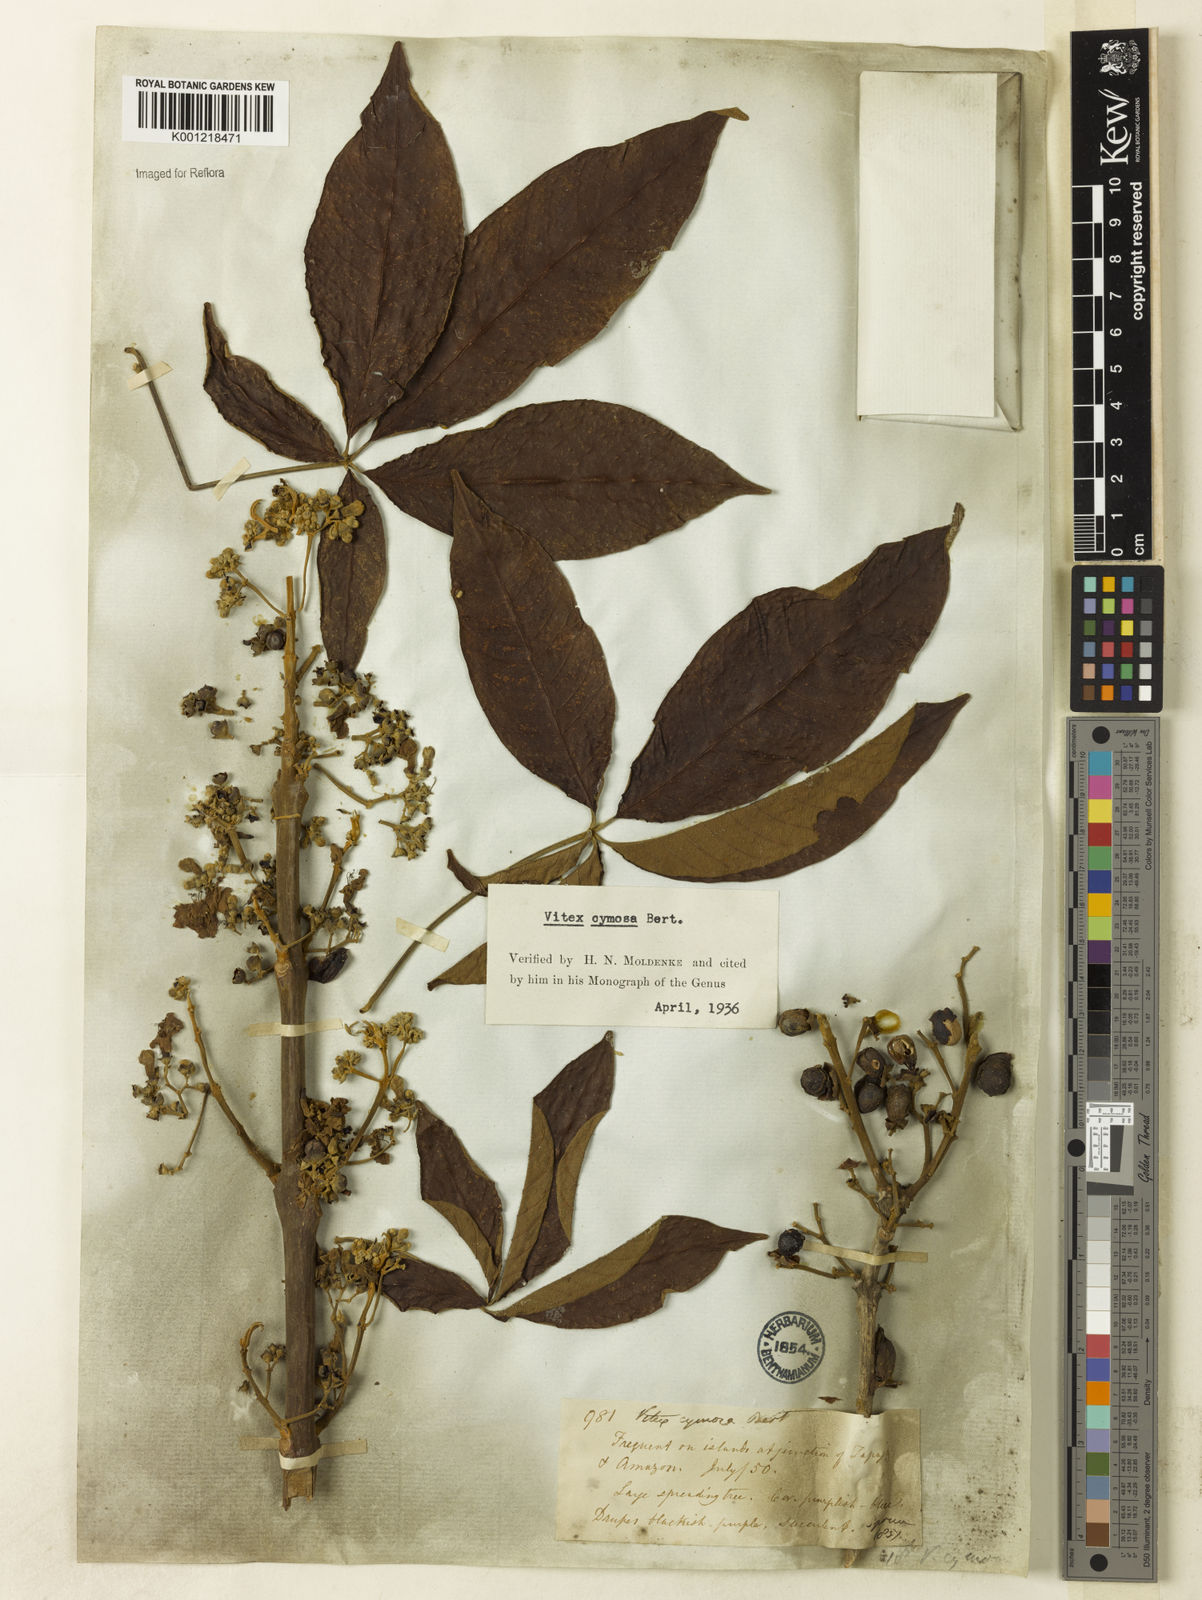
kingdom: Plantae
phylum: Tracheophyta
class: Magnoliopsida
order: Lamiales
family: Lamiaceae
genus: Vitex
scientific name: Vitex cymosa
